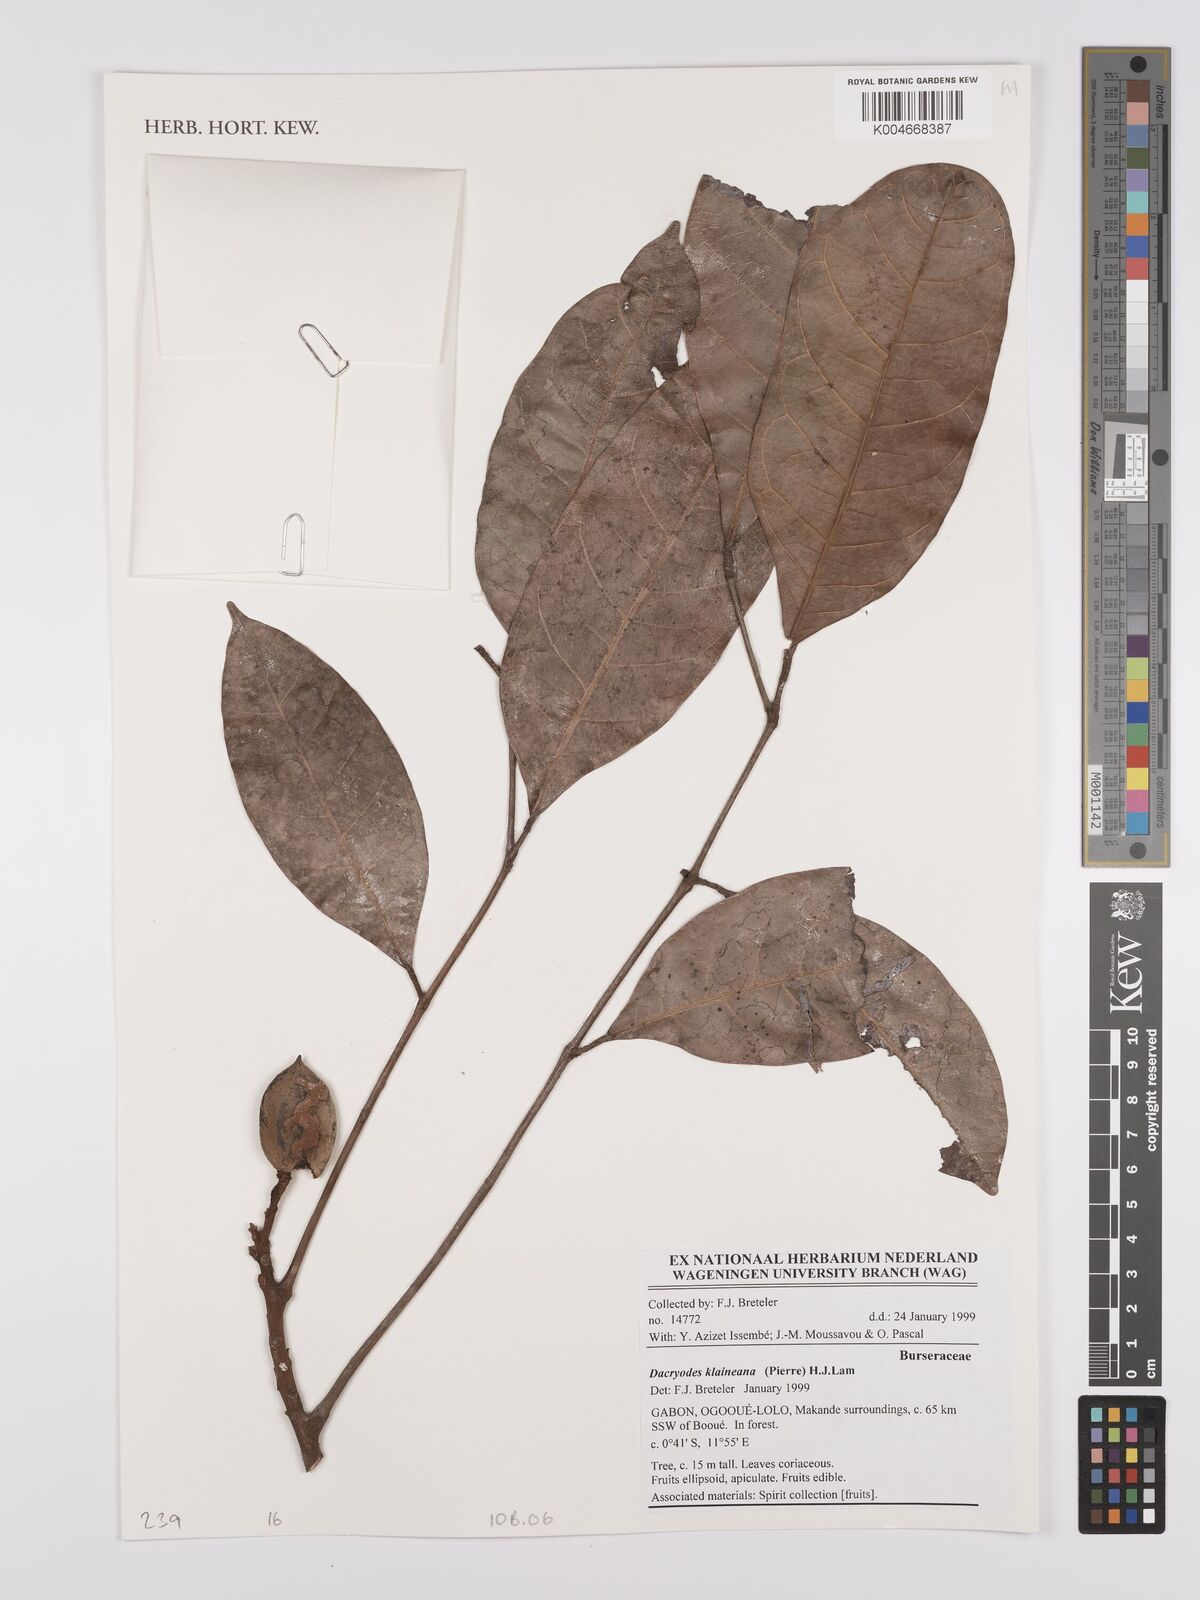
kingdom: Plantae
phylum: Tracheophyta
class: Magnoliopsida
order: Sapindales
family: Burseraceae
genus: Pachylobus
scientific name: Pachylobus klaineana
